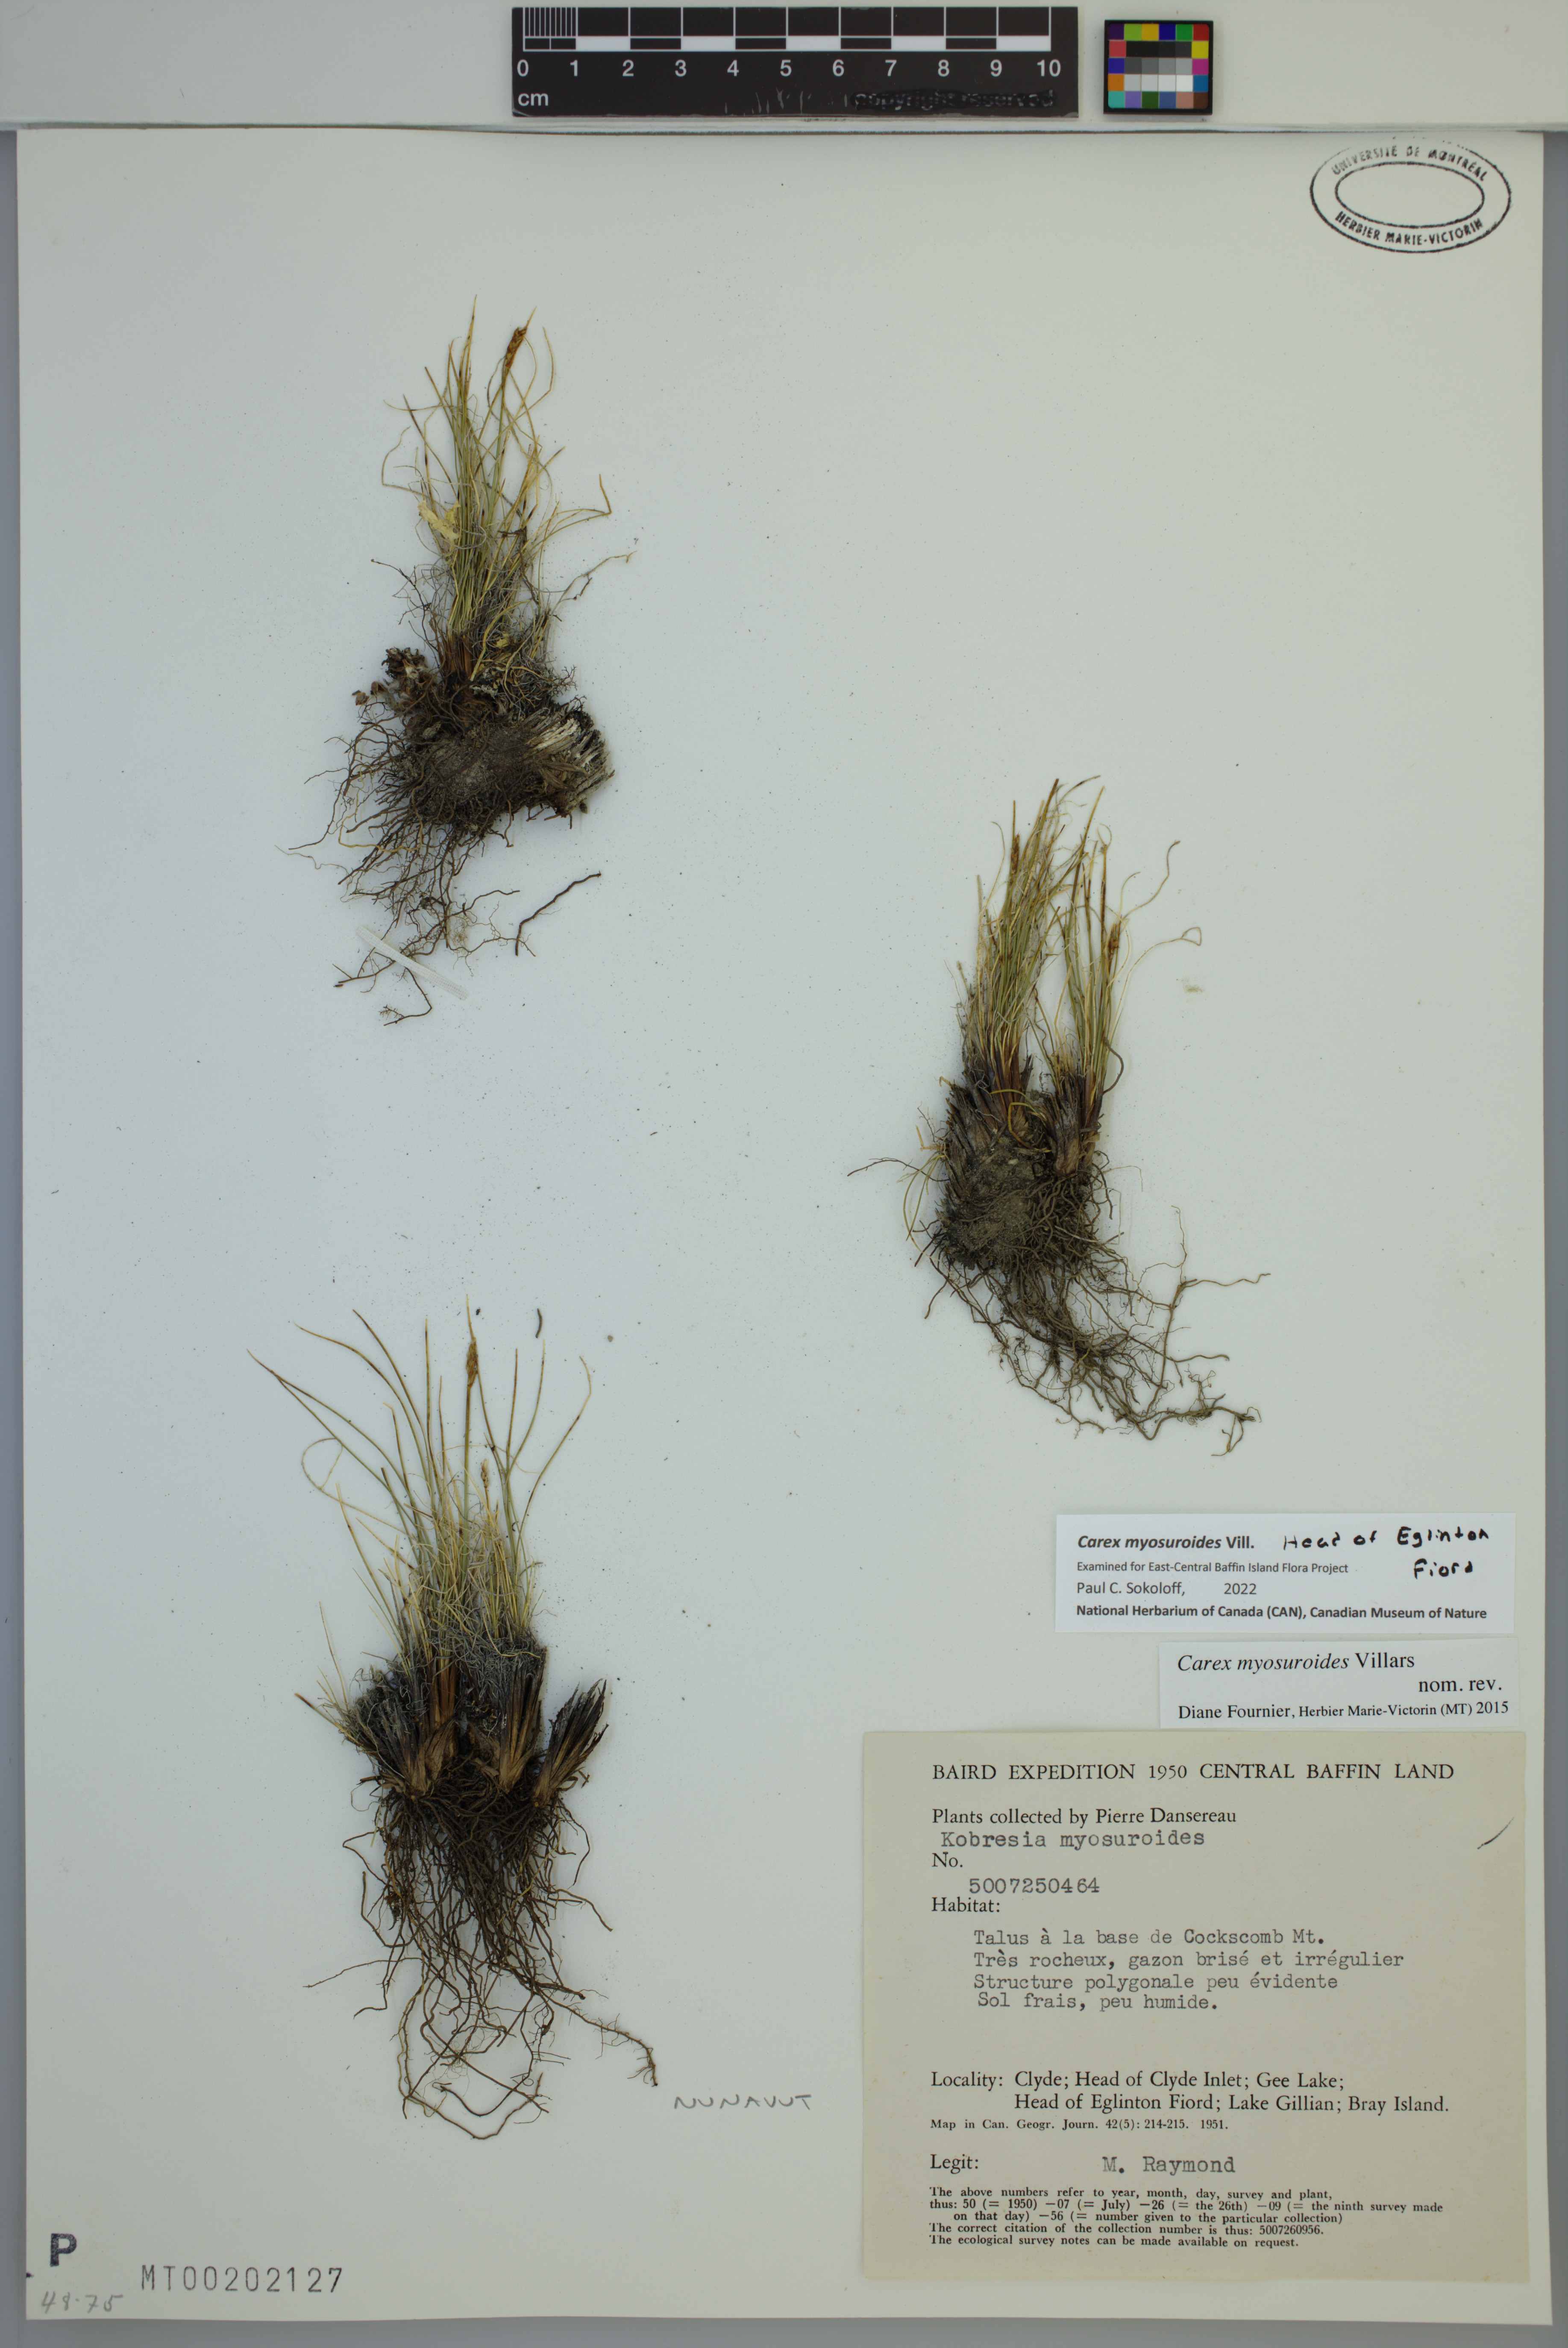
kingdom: Plantae
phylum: Tracheophyta
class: Liliopsida
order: Poales
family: Cyperaceae
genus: Carex
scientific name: Carex myosuroides
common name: Bellard's bog sedge
